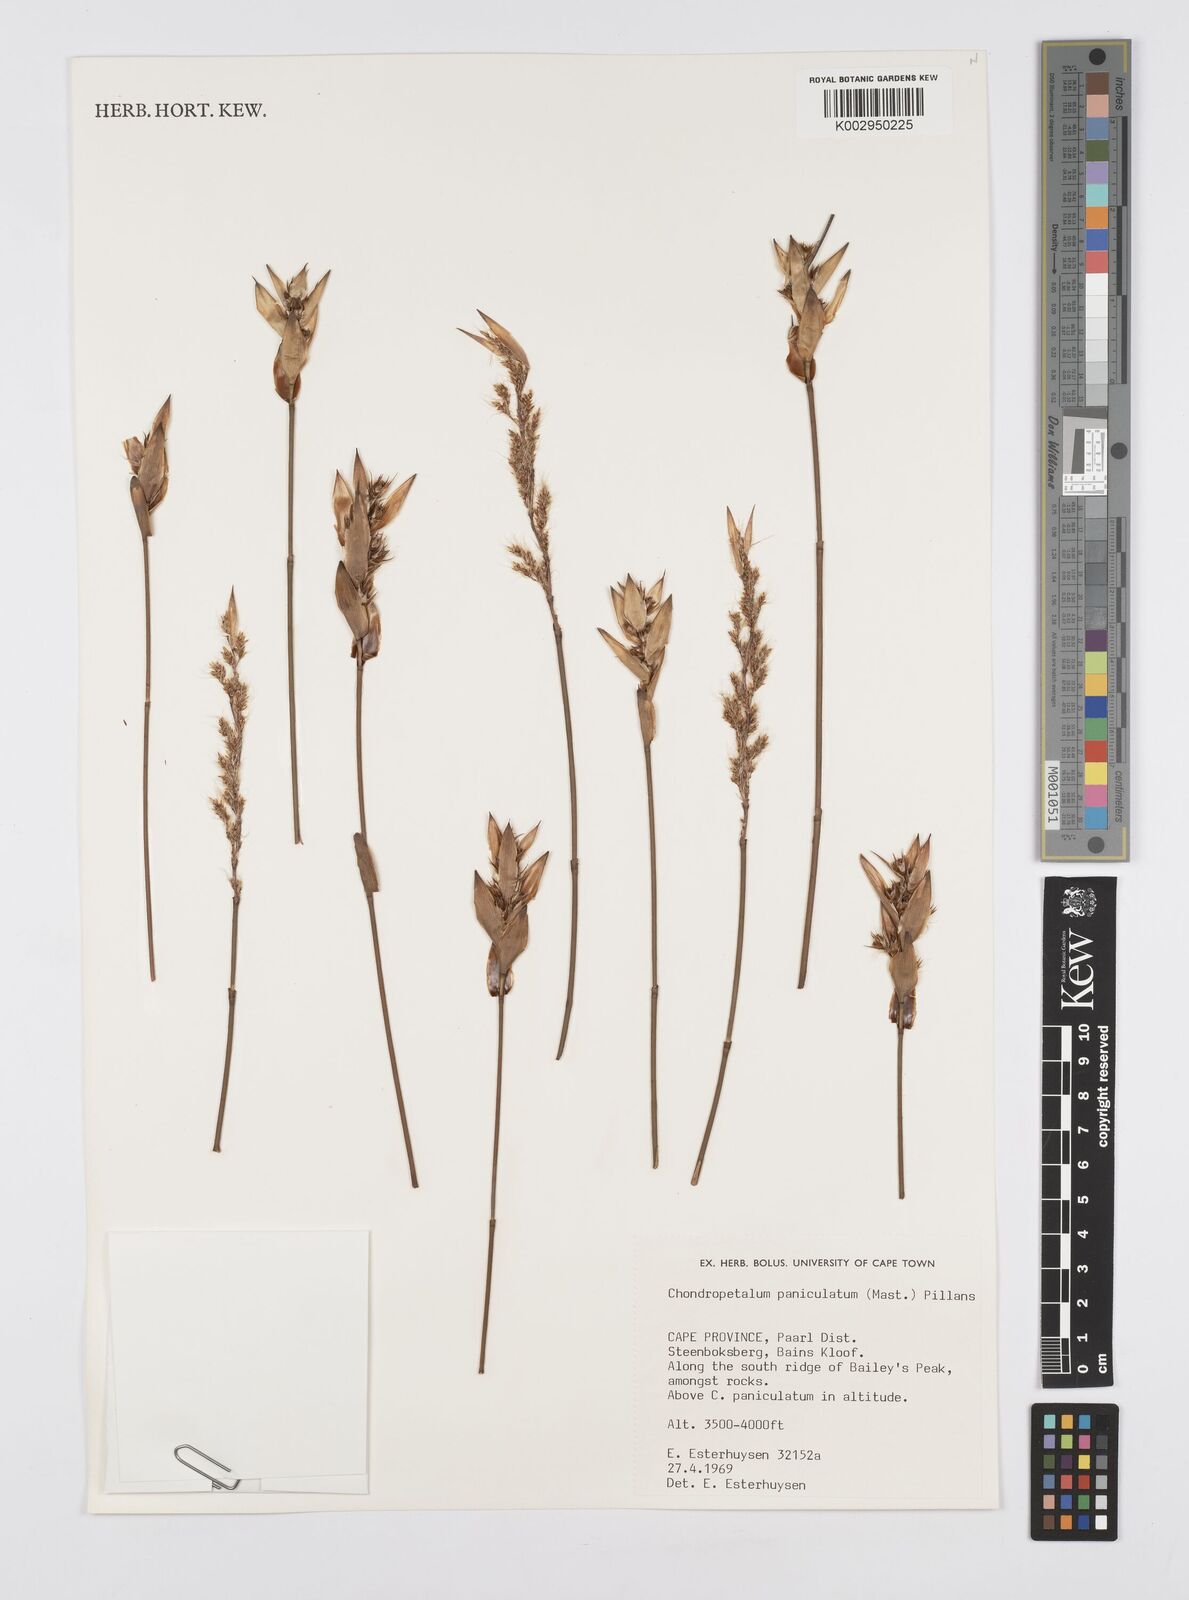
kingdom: Plantae
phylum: Tracheophyta
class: Liliopsida
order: Poales
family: Restionaceae
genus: Askidiosperma
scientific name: Askidiosperma paniculatum
